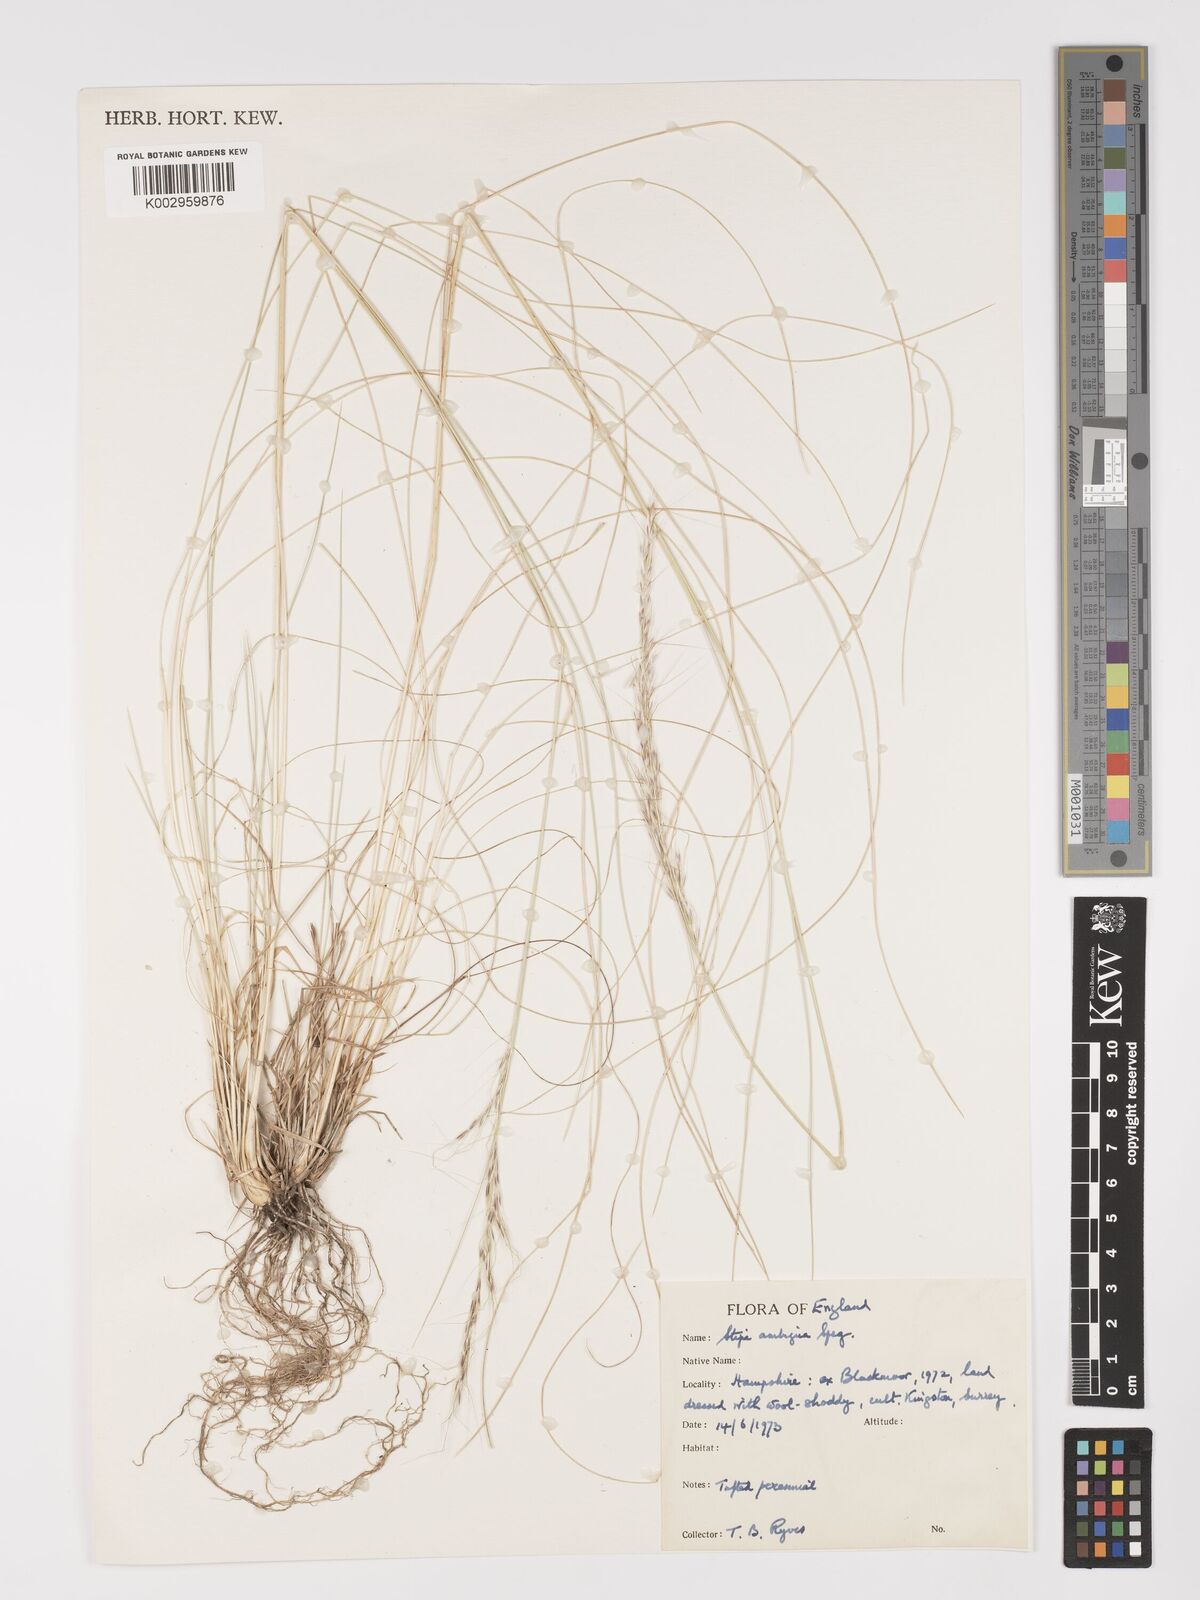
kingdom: Plantae
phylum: Tracheophyta
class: Liliopsida
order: Poales
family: Poaceae
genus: Amelichloa
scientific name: Amelichloa ambigua
